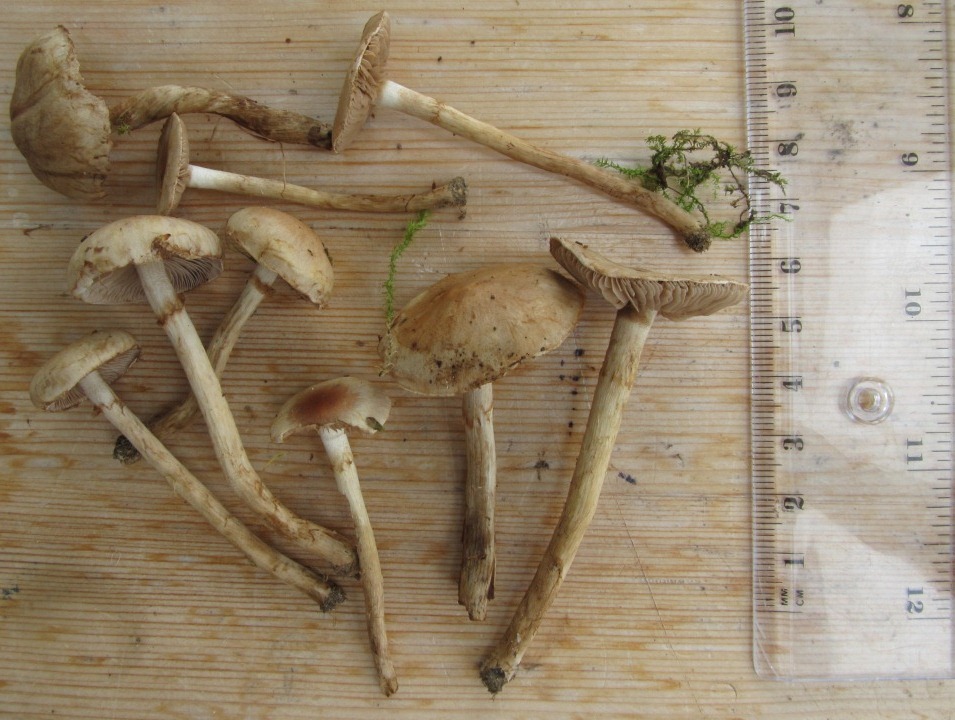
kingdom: Fungi
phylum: Basidiomycota
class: Agaricomycetes
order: Agaricales
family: Hymenogastraceae
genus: Hebeloma
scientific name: Hebeloma mesophaeum
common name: lerbrun tåreblad
